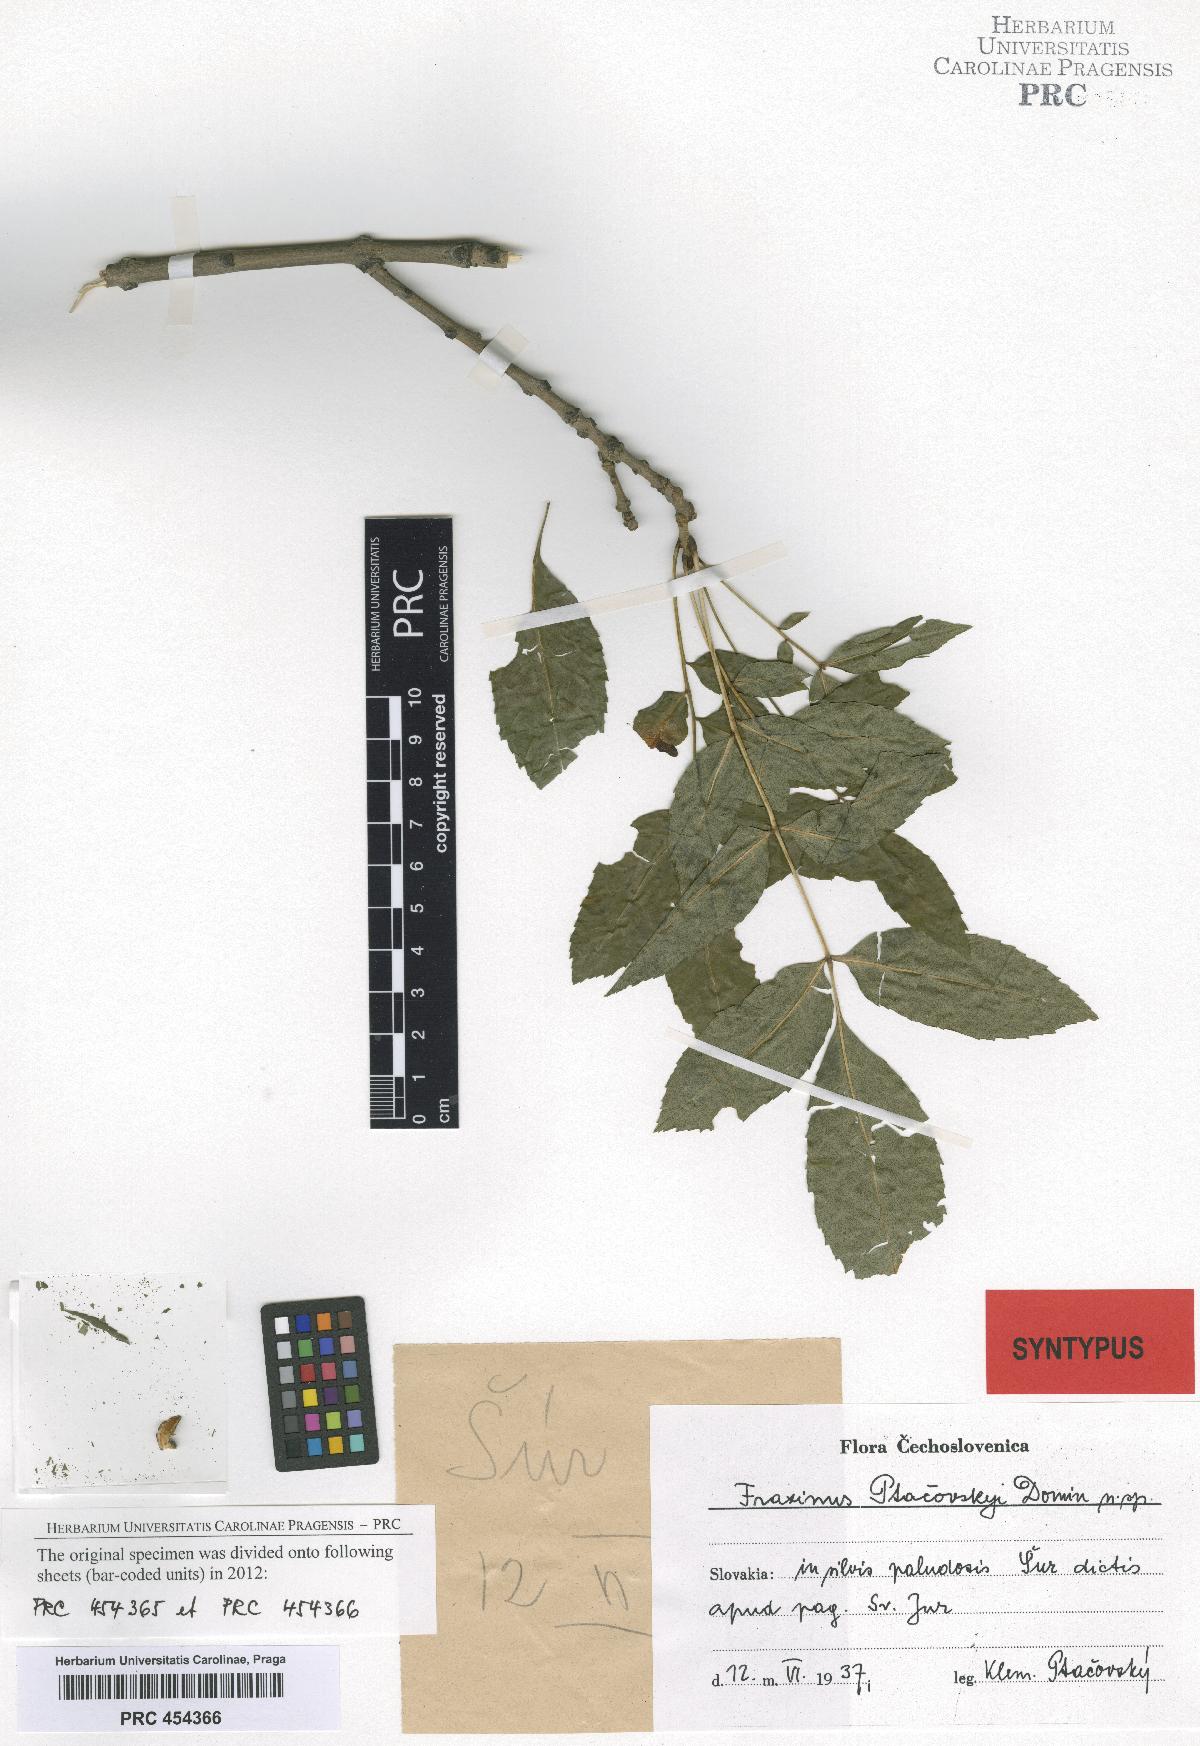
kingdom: Plantae
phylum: Tracheophyta
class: Magnoliopsida
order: Lamiales
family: Oleaceae
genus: Fraxinus
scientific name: Fraxinus angustifolia
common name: Narrow-leafed ash
